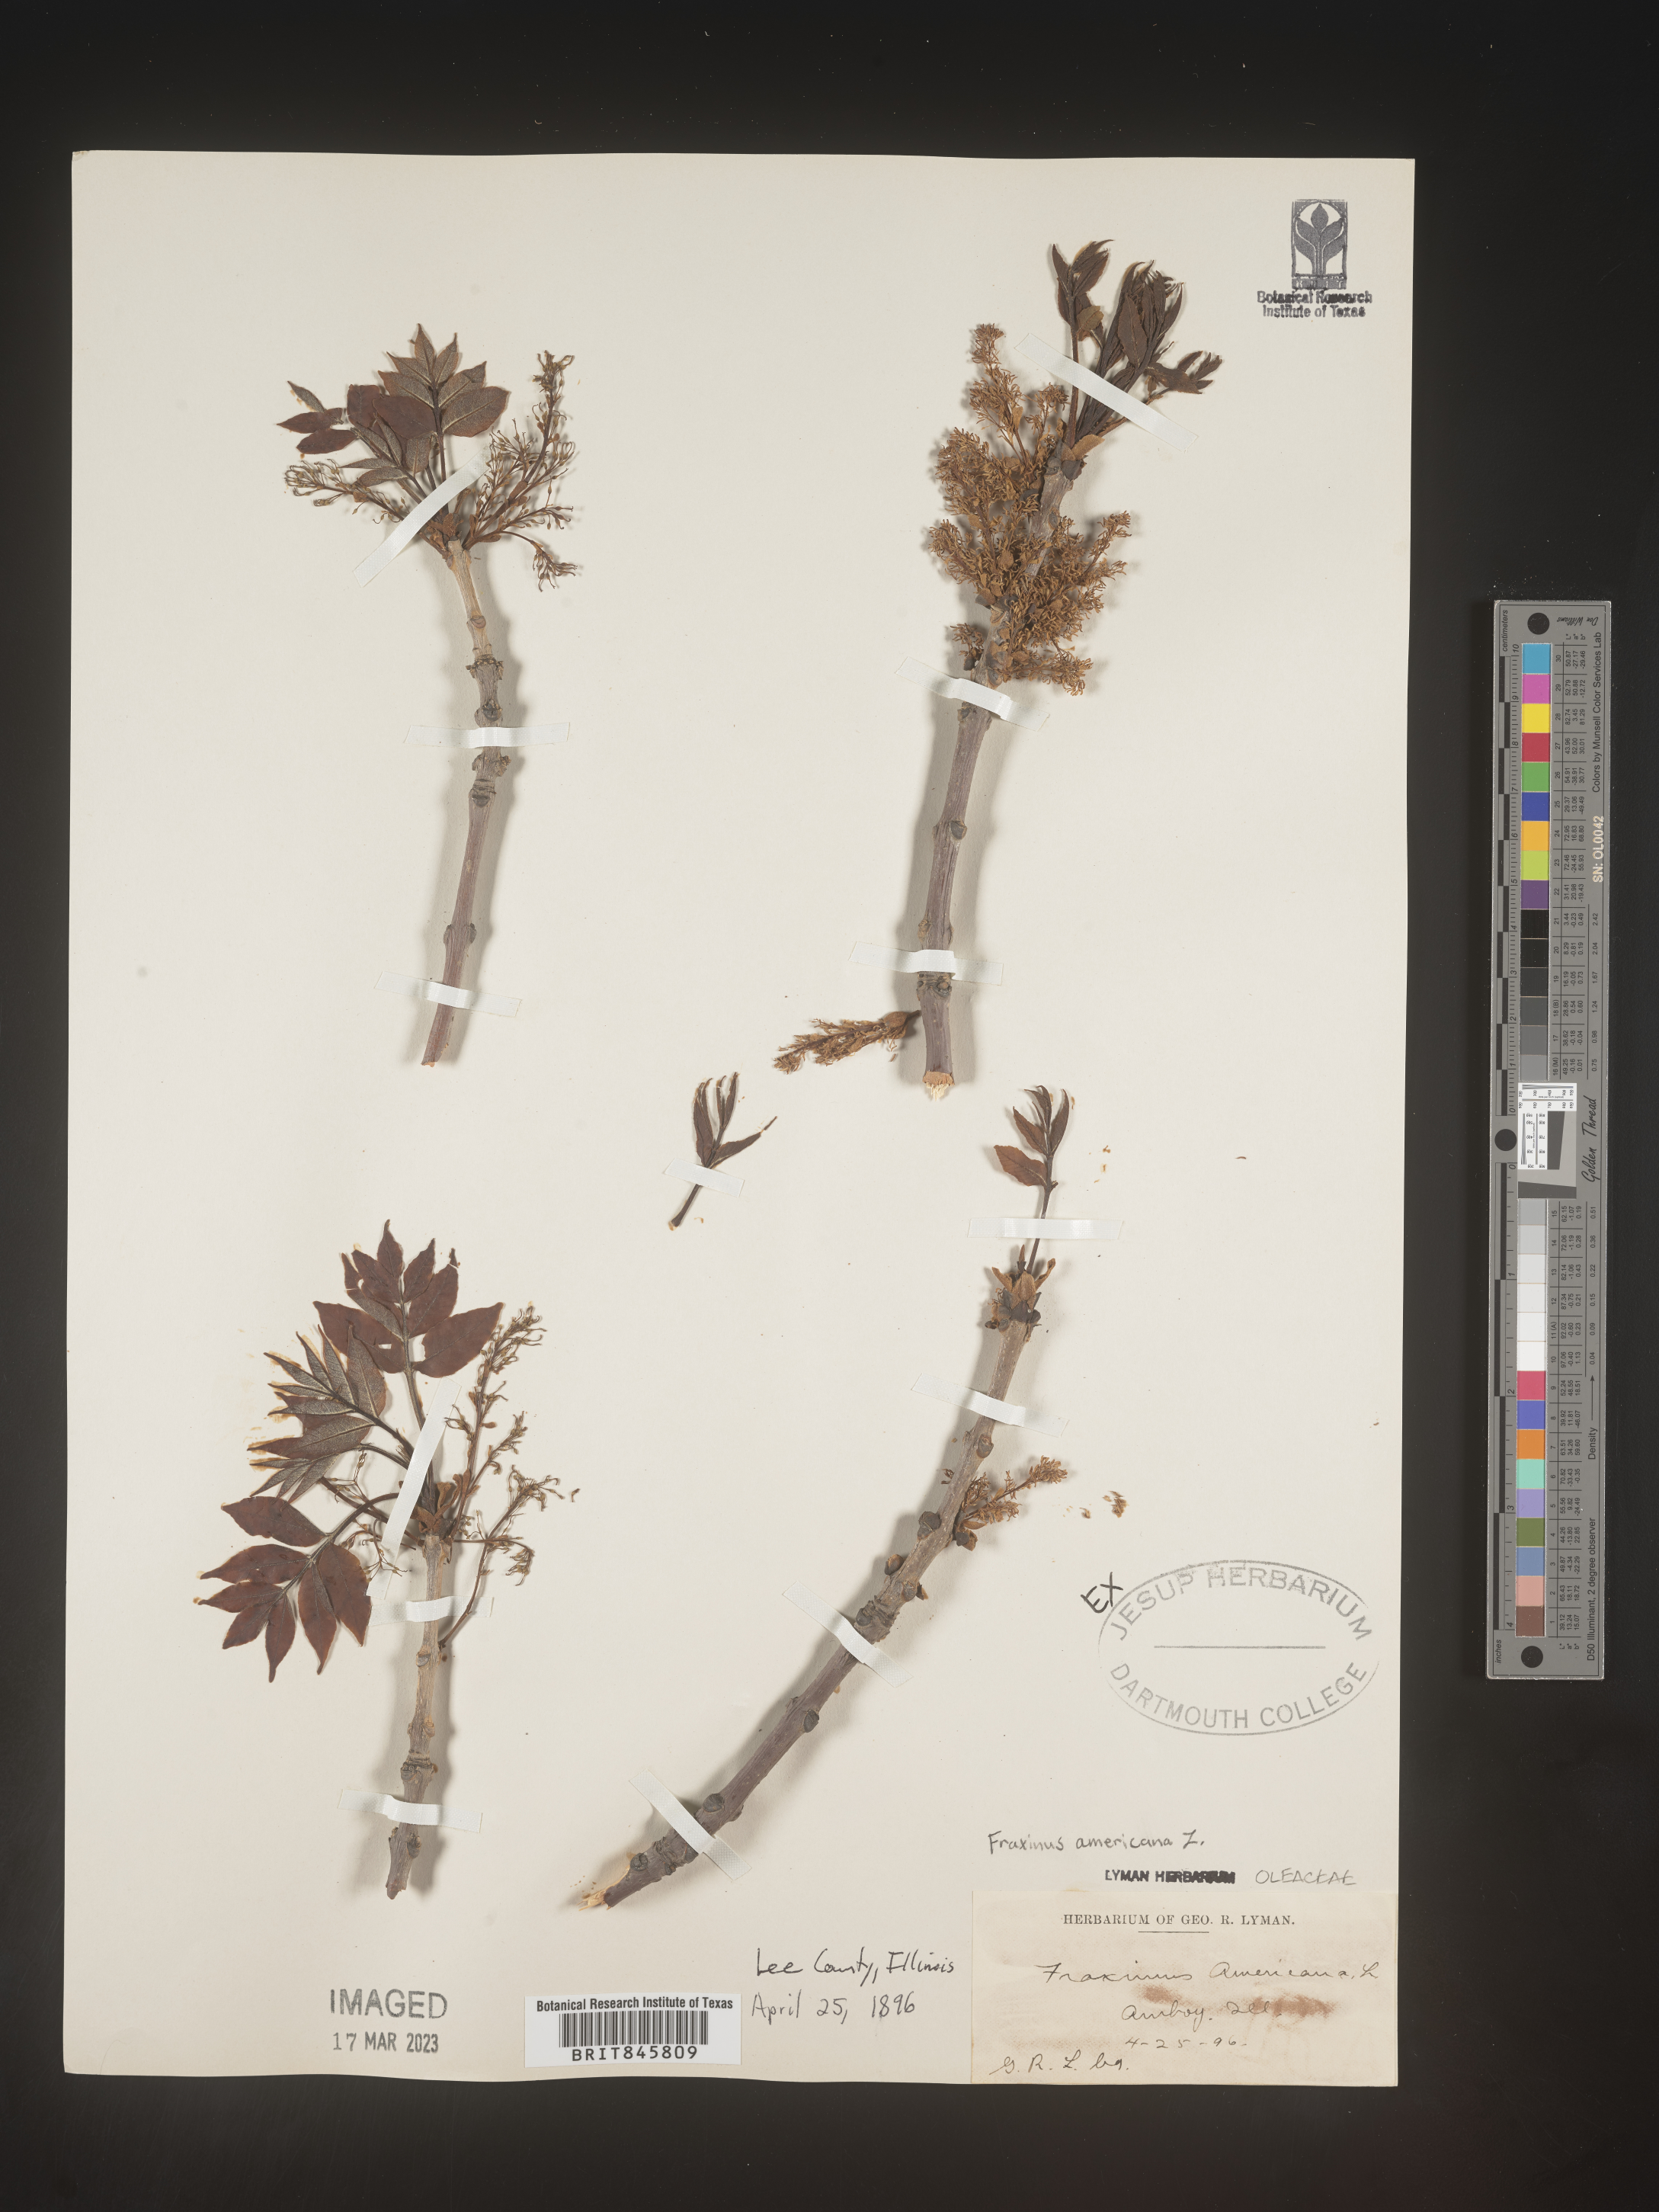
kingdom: Plantae
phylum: Tracheophyta
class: Magnoliopsida
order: Lamiales
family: Oleaceae
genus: Fraxinus
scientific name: Fraxinus americana
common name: White ash
